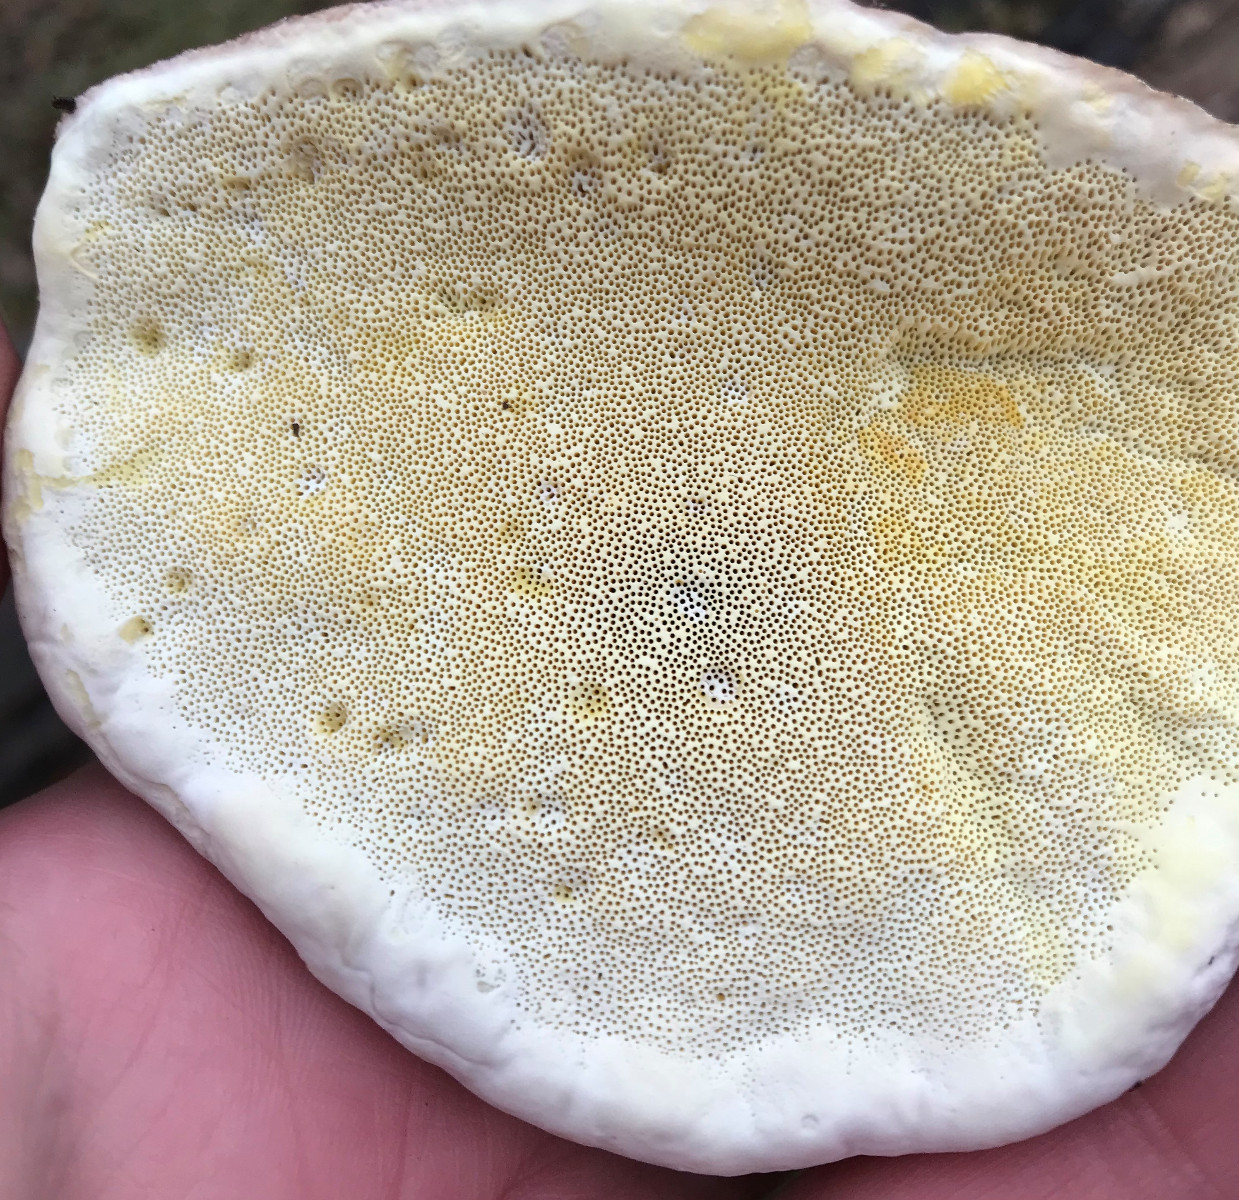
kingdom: Fungi
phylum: Basidiomycota
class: Agaricomycetes
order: Polyporales
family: Fomitopsidaceae
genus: Fomitopsis
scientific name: Fomitopsis pinicola
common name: randbæltet hovporesvamp
